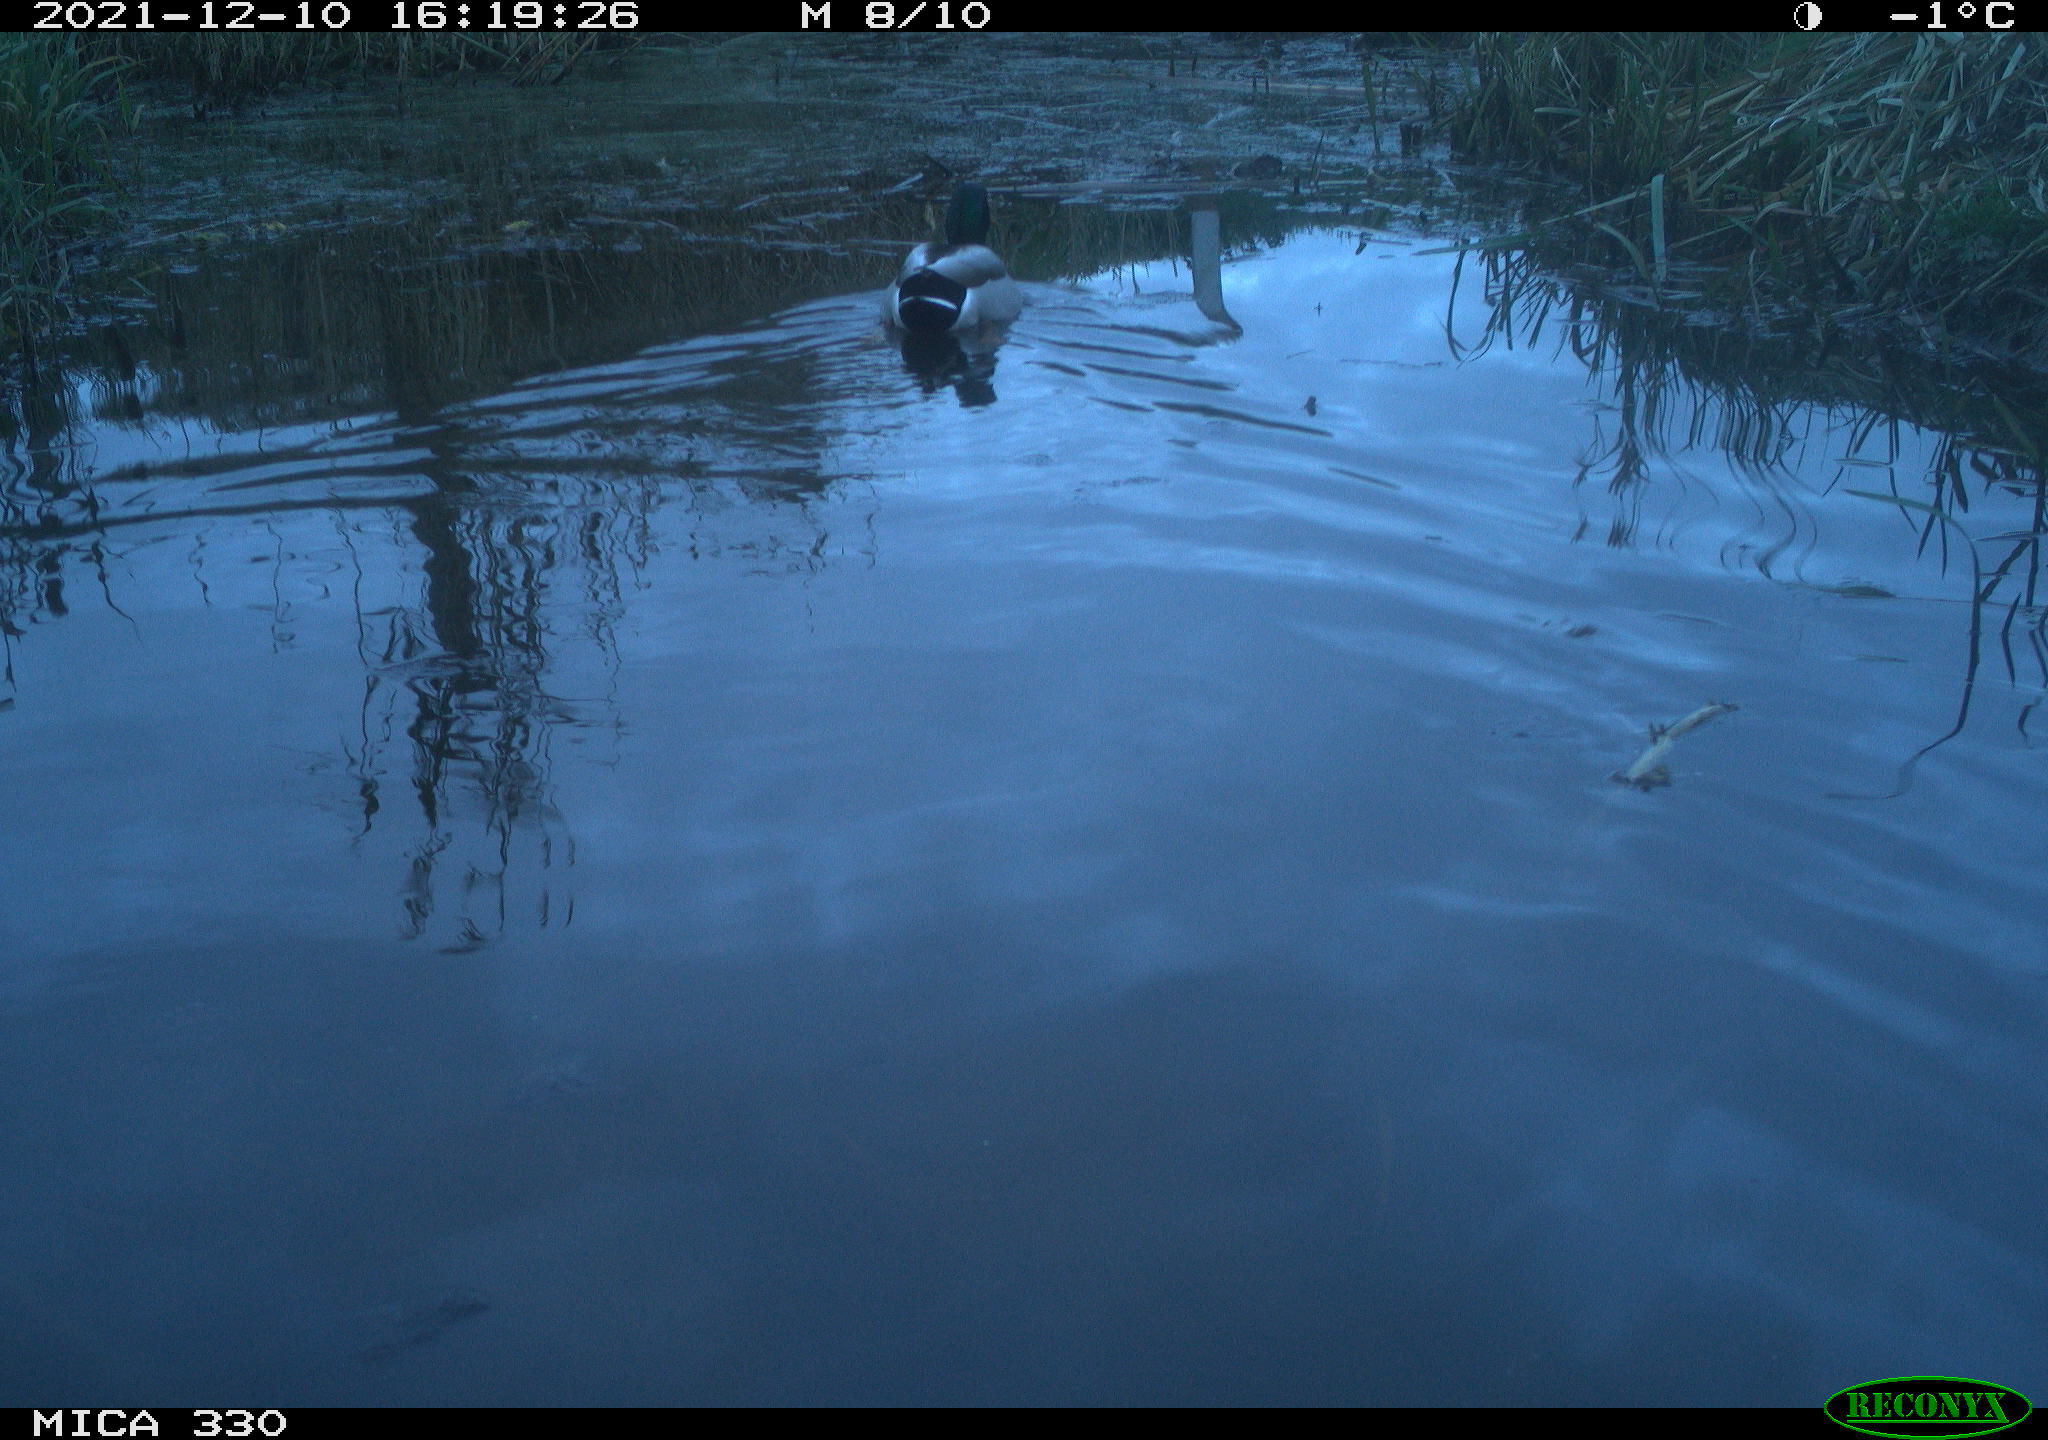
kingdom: Animalia
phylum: Chordata
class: Aves
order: Anseriformes
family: Anatidae
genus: Anas
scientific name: Anas platyrhynchos
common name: Mallard
